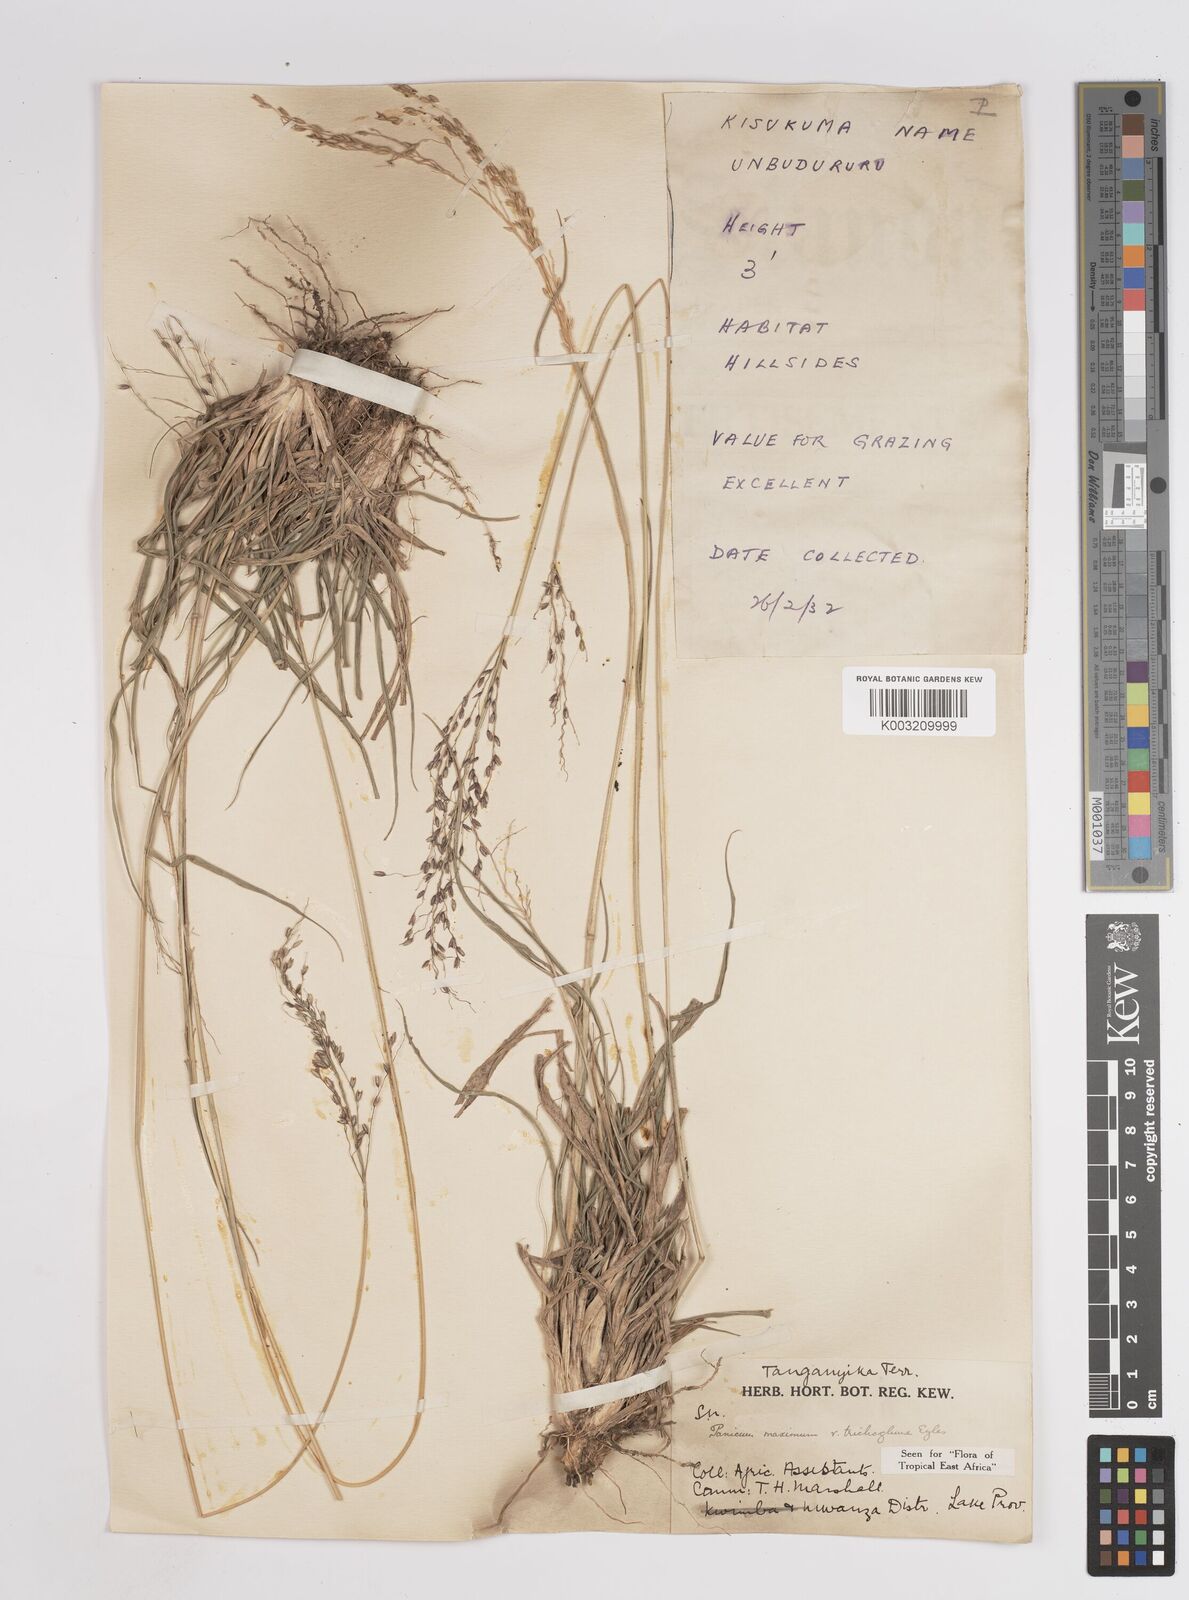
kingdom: Plantae
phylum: Tracheophyta
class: Liliopsida
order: Poales
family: Poaceae
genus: Megathyrsus
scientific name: Megathyrsus maximus
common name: Guineagrass
